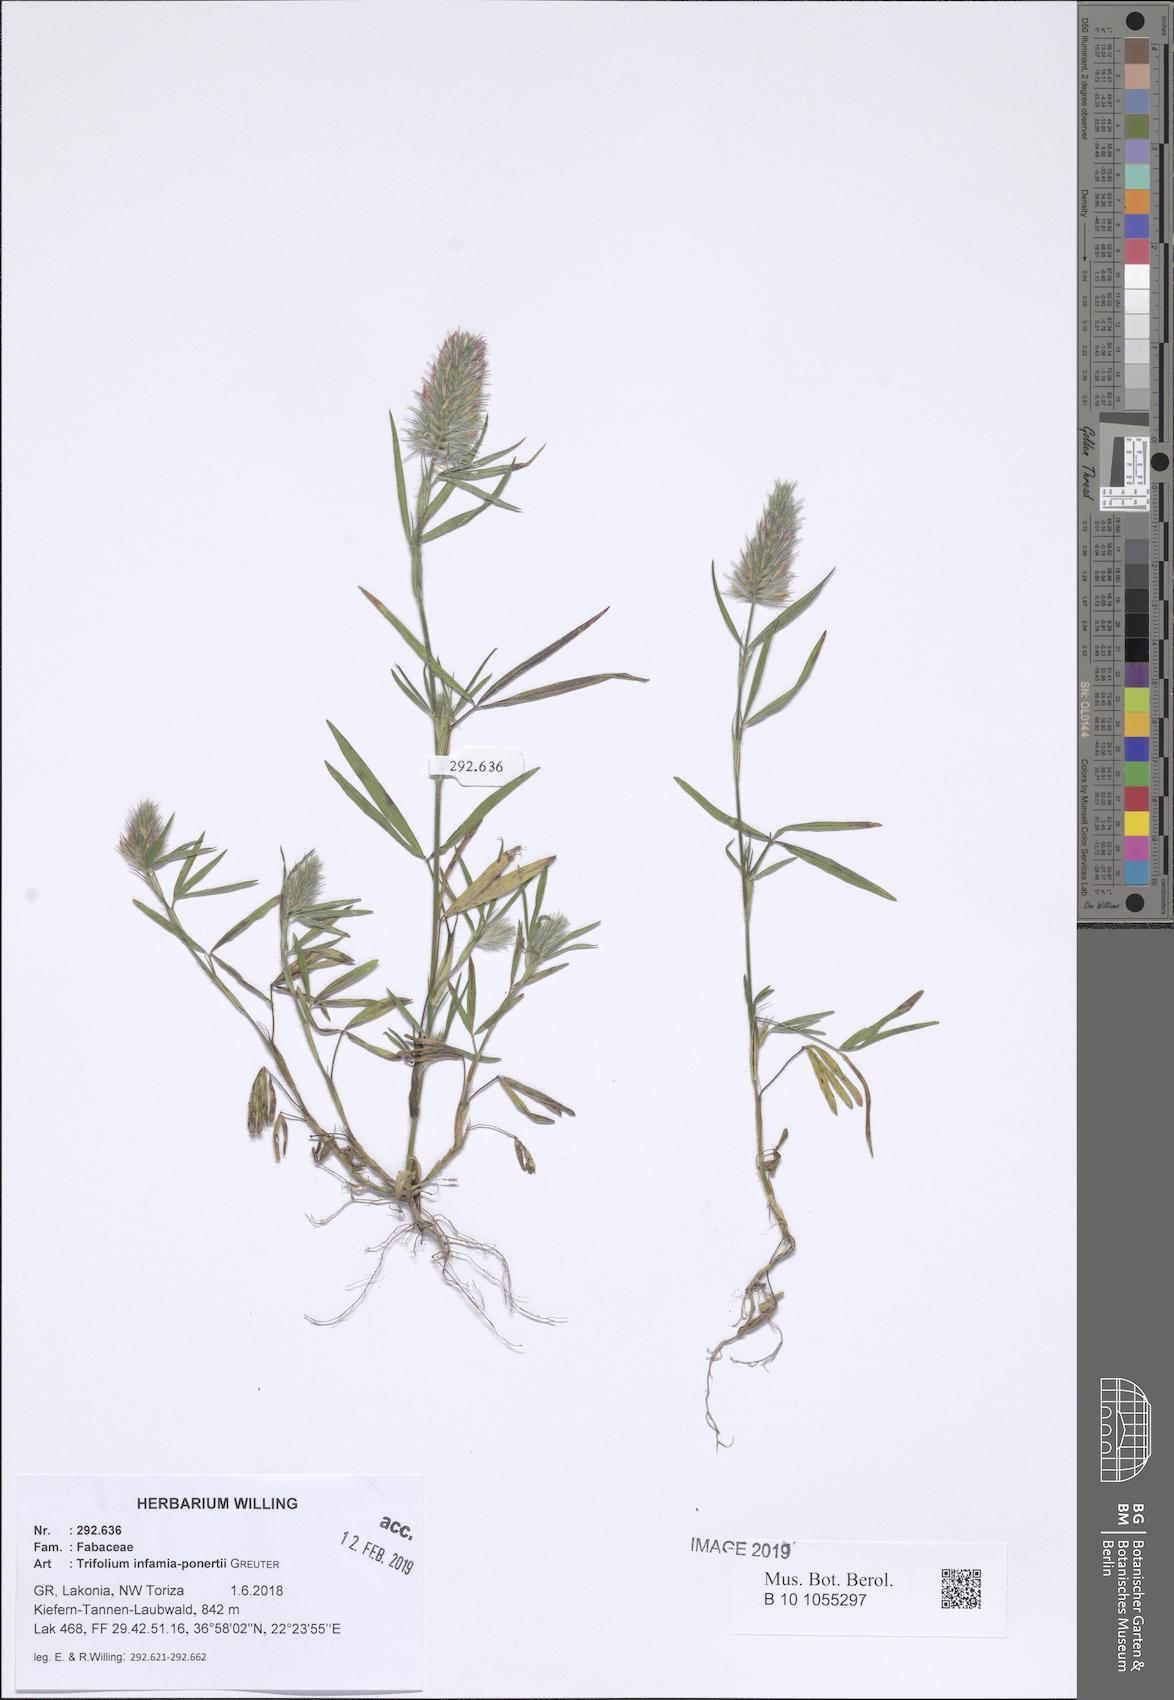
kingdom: Plantae
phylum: Tracheophyta
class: Magnoliopsida
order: Fabales
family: Fabaceae
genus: Trifolium
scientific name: Trifolium infamia-ponertii
